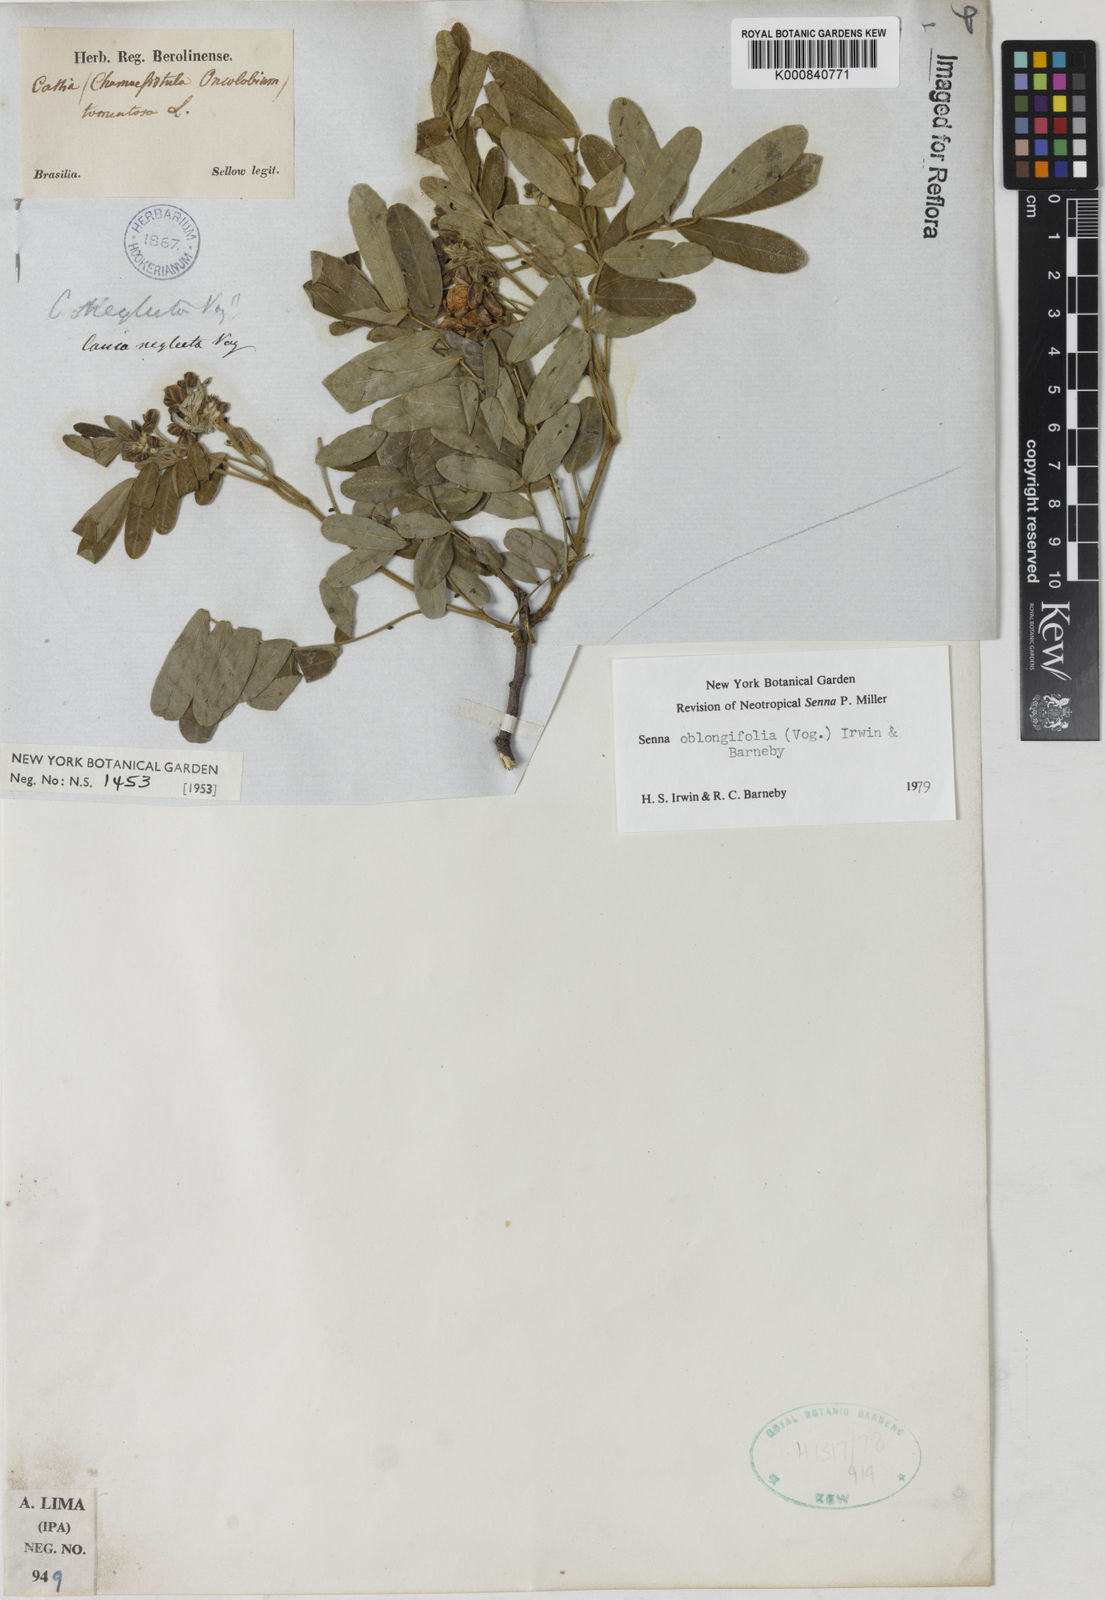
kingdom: Plantae
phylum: Tracheophyta
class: Magnoliopsida
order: Fabales
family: Fabaceae
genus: Senna
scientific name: Senna oblongifolia
